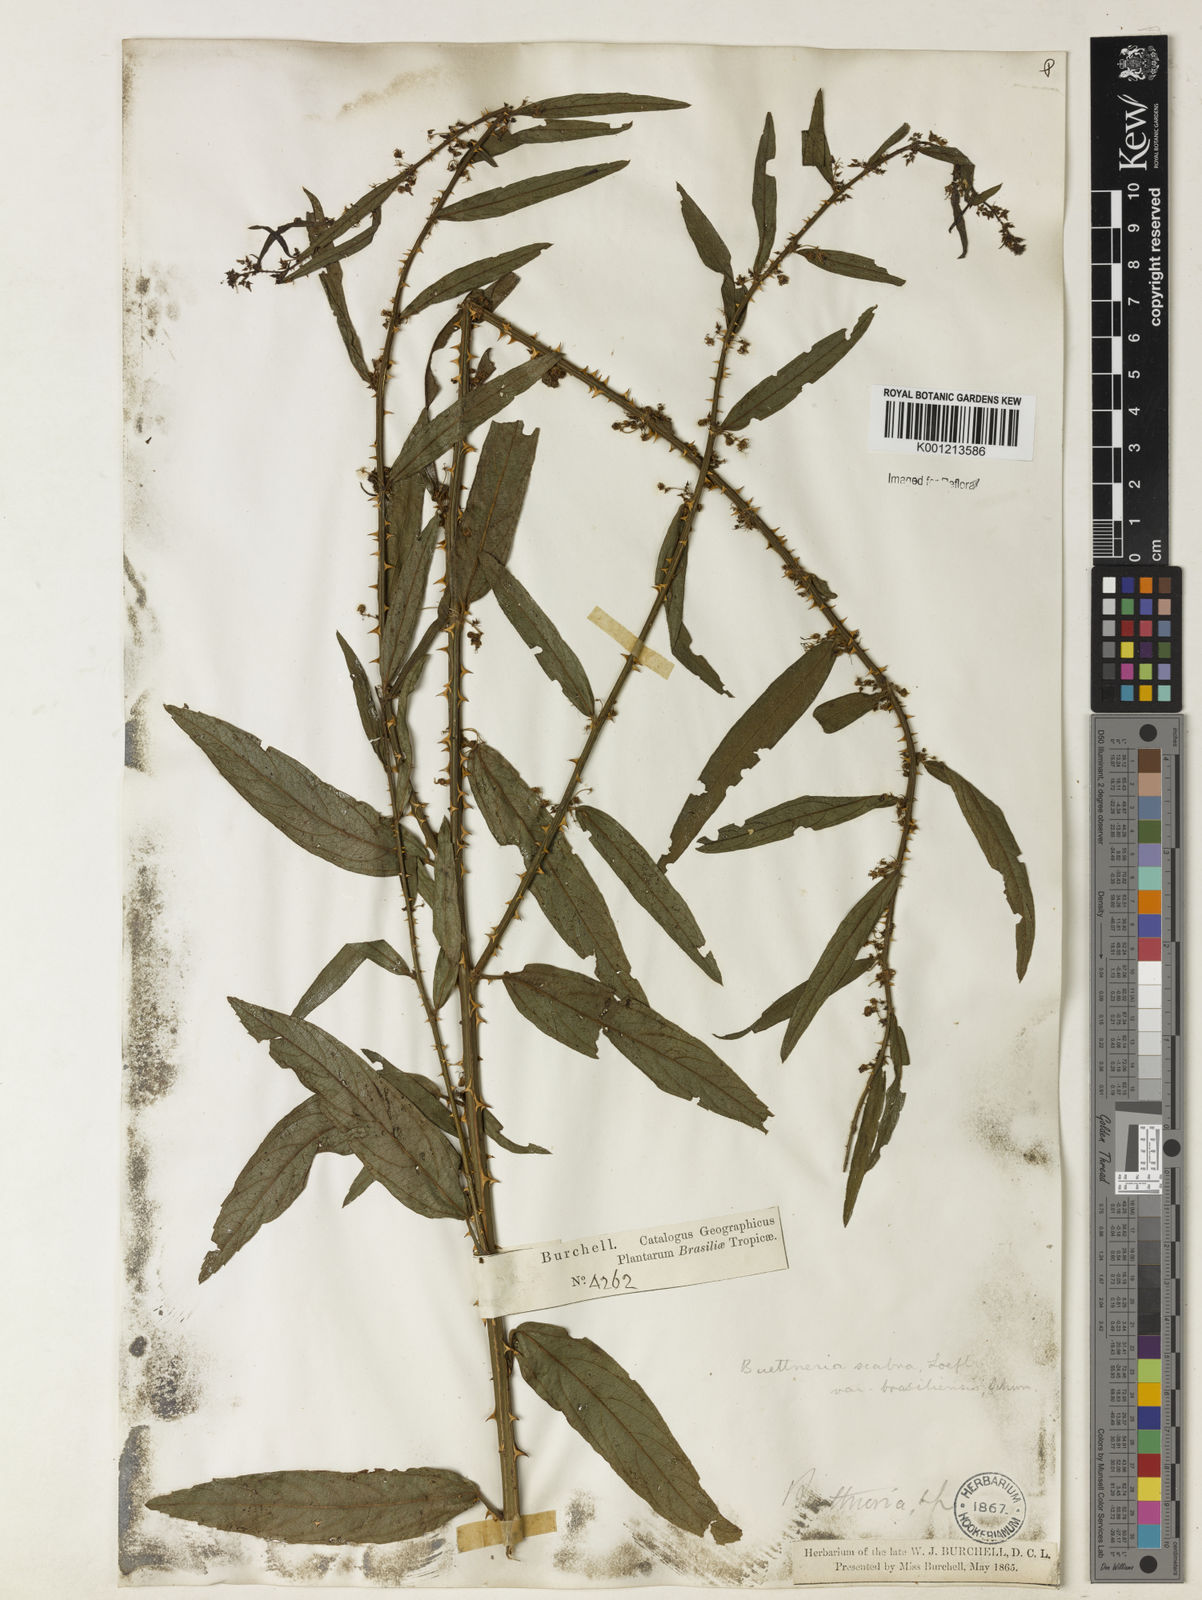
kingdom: Plantae
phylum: Tracheophyta
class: Magnoliopsida
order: Malvales
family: Malvaceae
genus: Byttneria
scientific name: Byttneria
